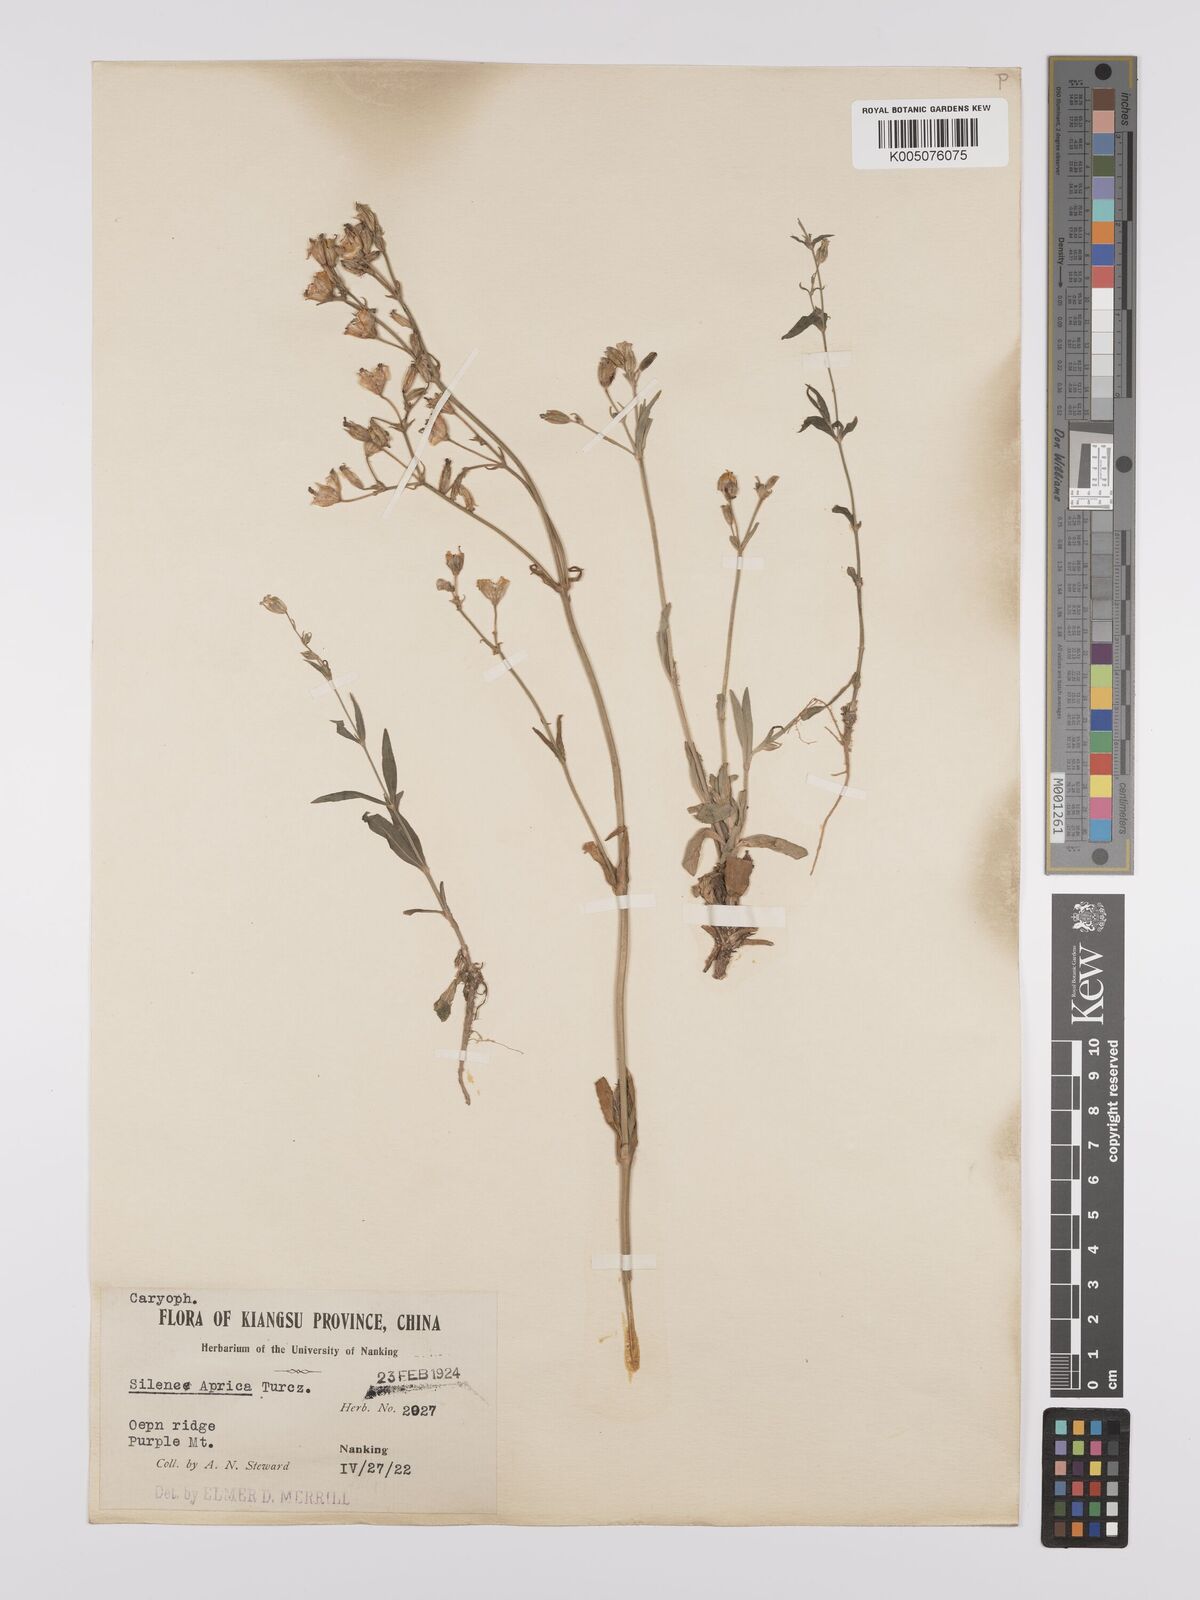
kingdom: Plantae
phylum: Tracheophyta
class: Magnoliopsida
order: Caryophyllales
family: Caryophyllaceae
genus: Silene
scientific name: Silene aprica
